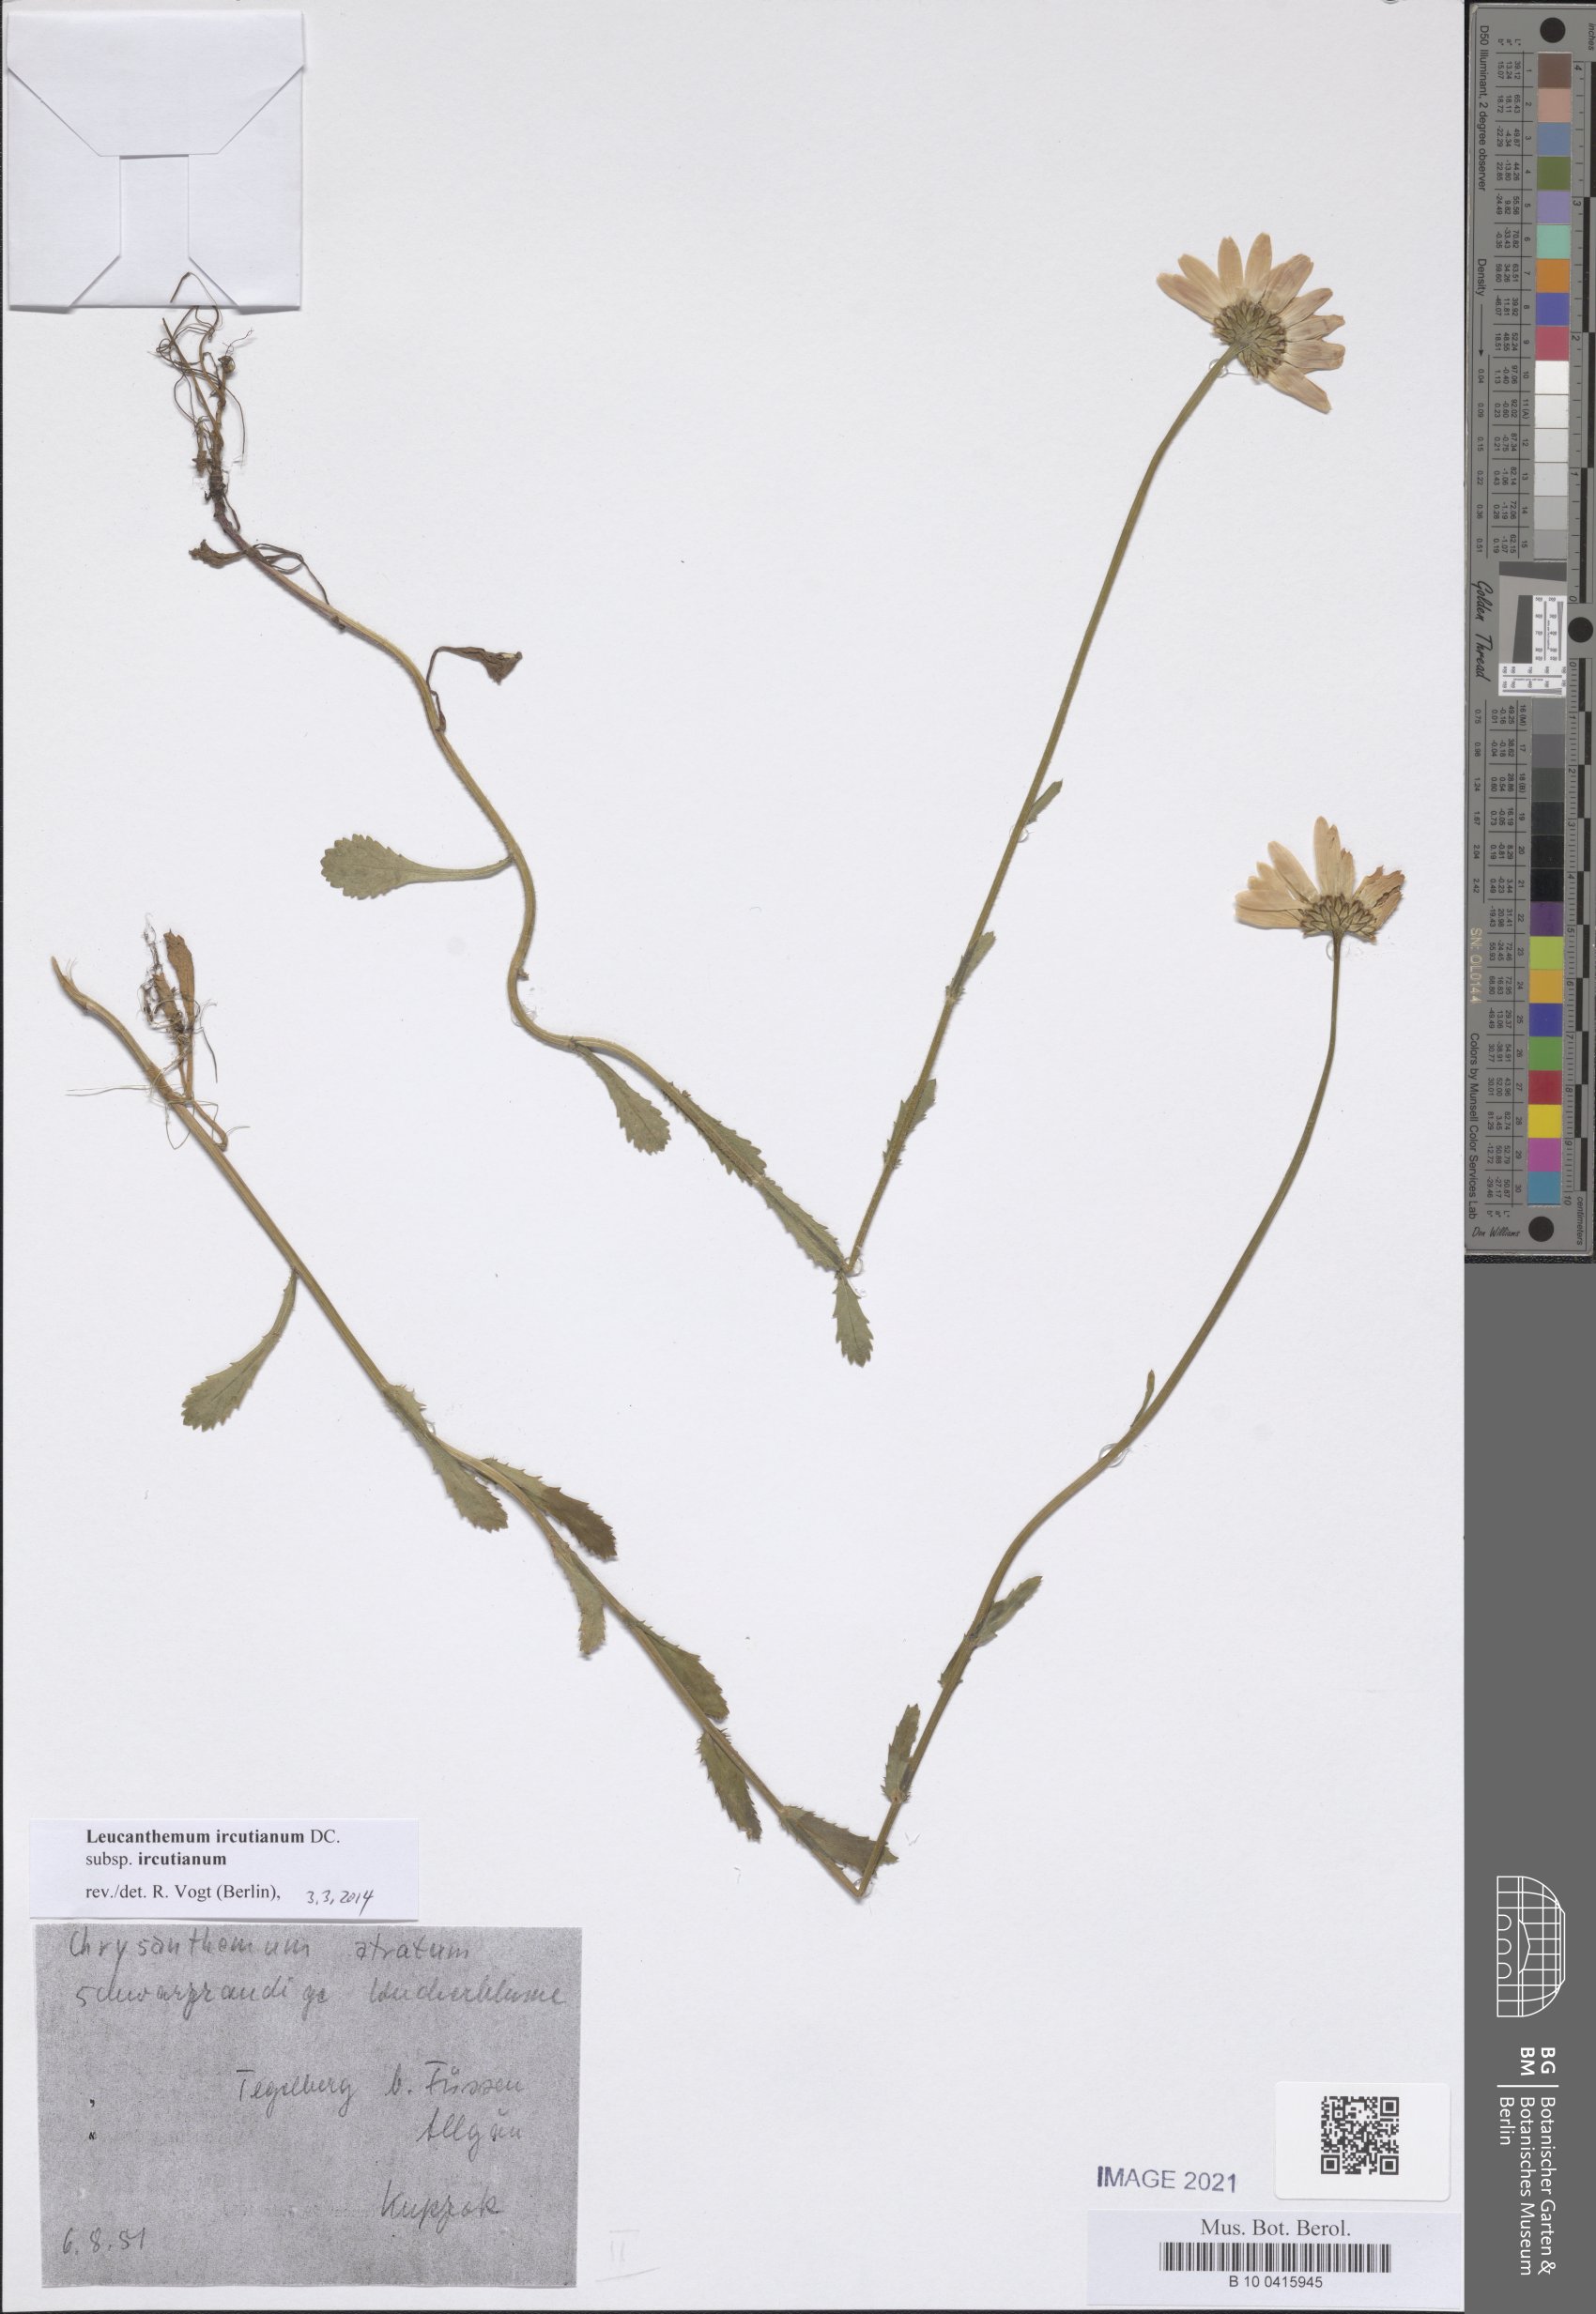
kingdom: Plantae
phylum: Tracheophyta
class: Magnoliopsida
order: Asterales
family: Asteraceae
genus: Leucanthemum
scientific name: Leucanthemum ircutianum
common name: Daisy
